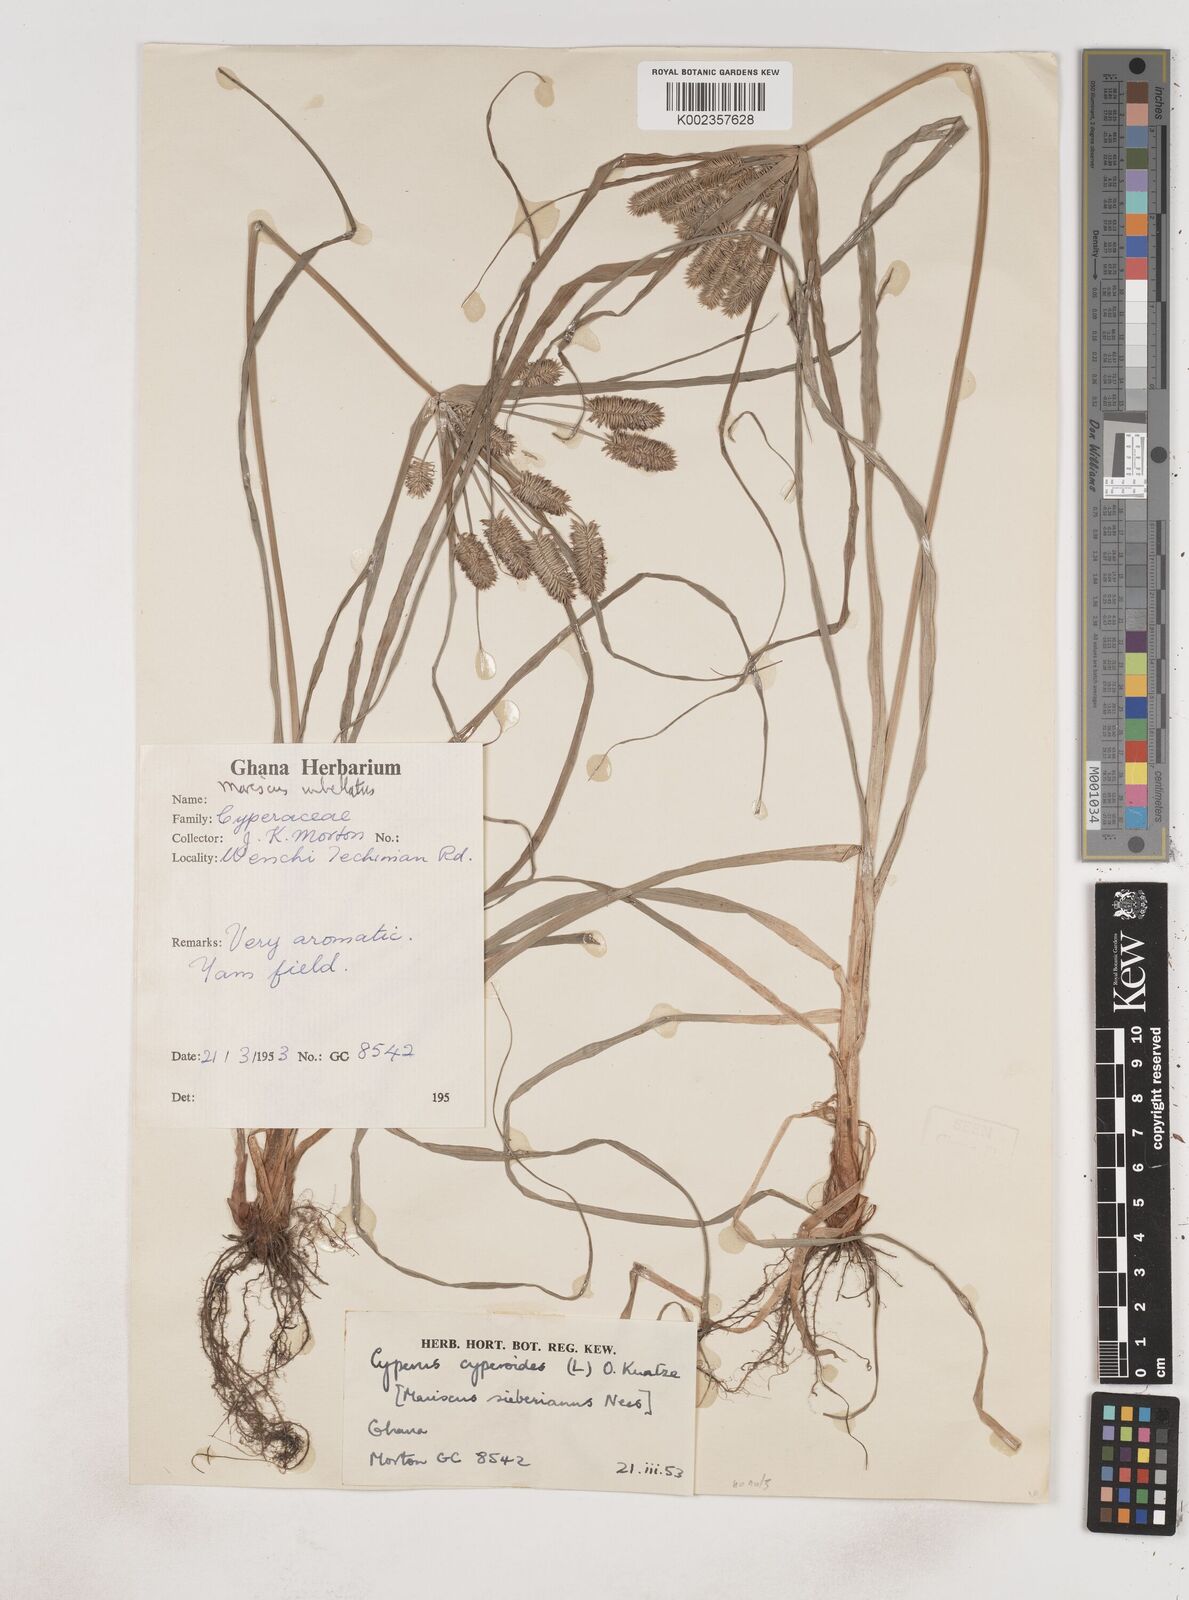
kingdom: Plantae
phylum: Tracheophyta
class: Liliopsida
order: Poales
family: Cyperaceae
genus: Cyperus
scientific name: Cyperus cyperoides
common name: Pacific island flat sedge
